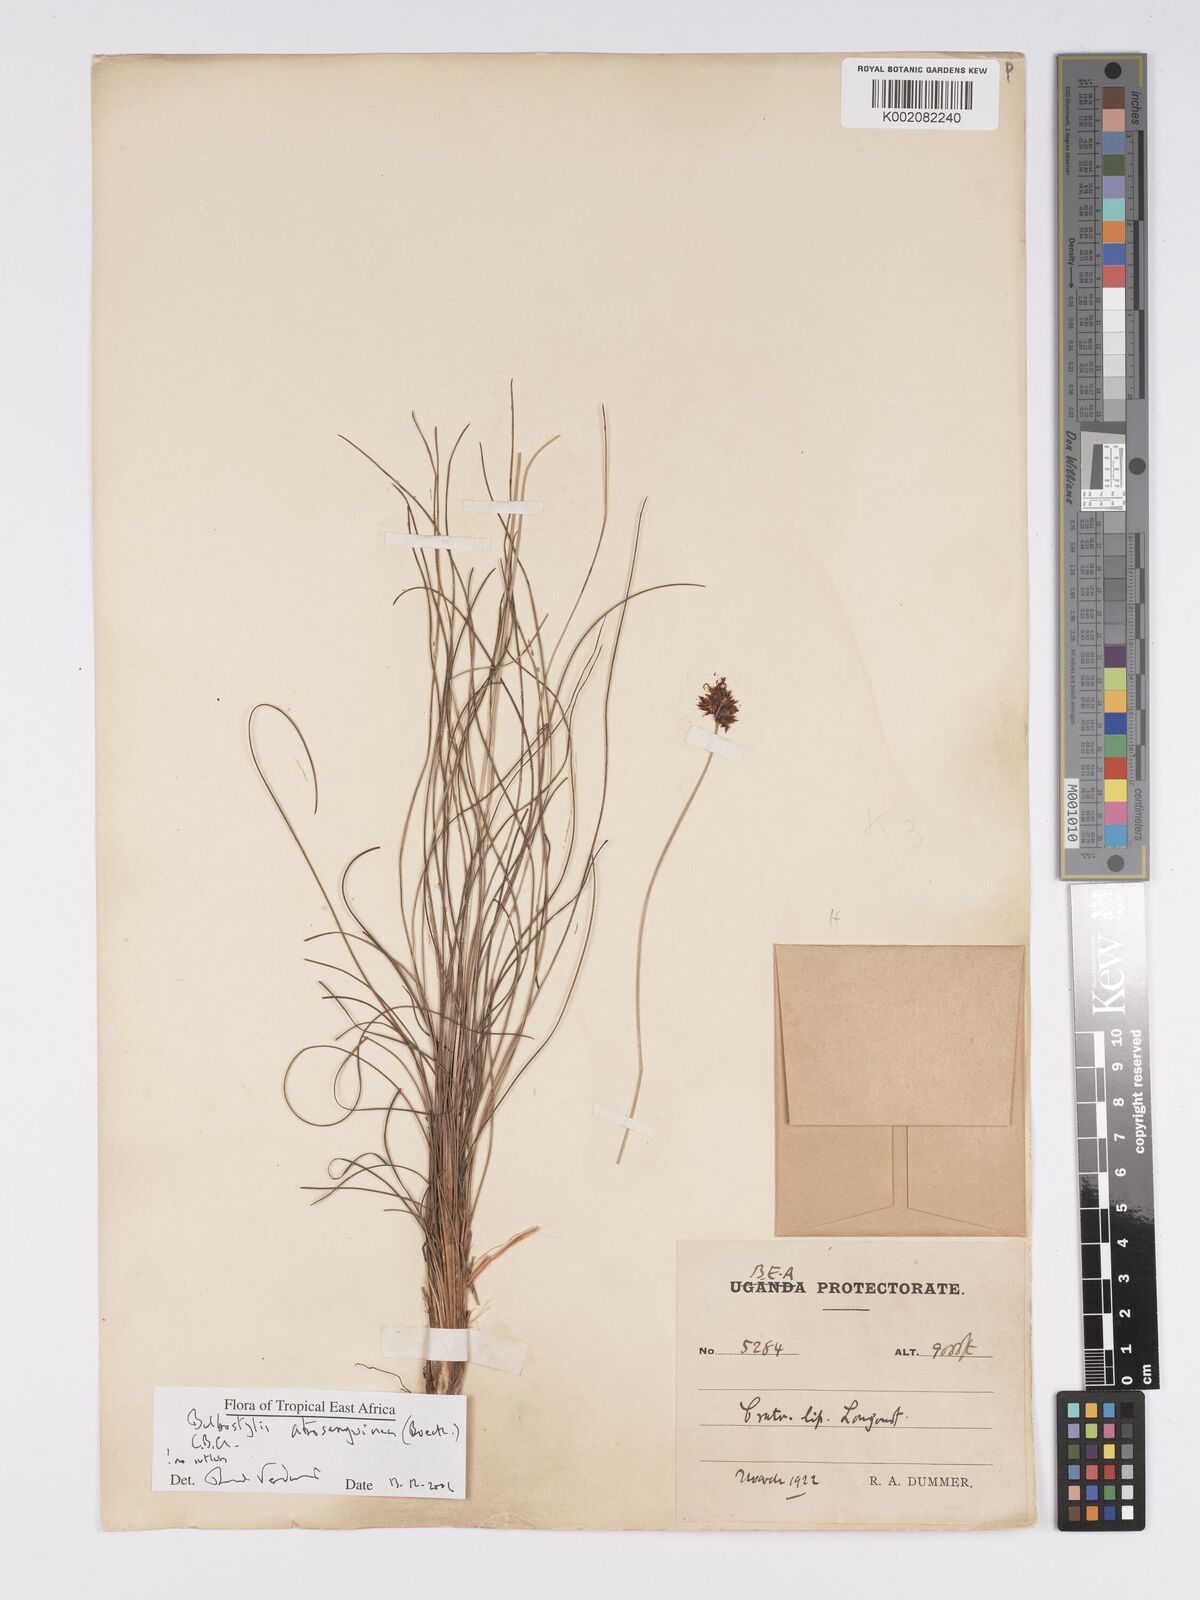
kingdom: Plantae
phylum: Tracheophyta
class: Liliopsida
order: Poales
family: Cyperaceae
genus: Bulbostylis
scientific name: Bulbostylis atrosanguinea
